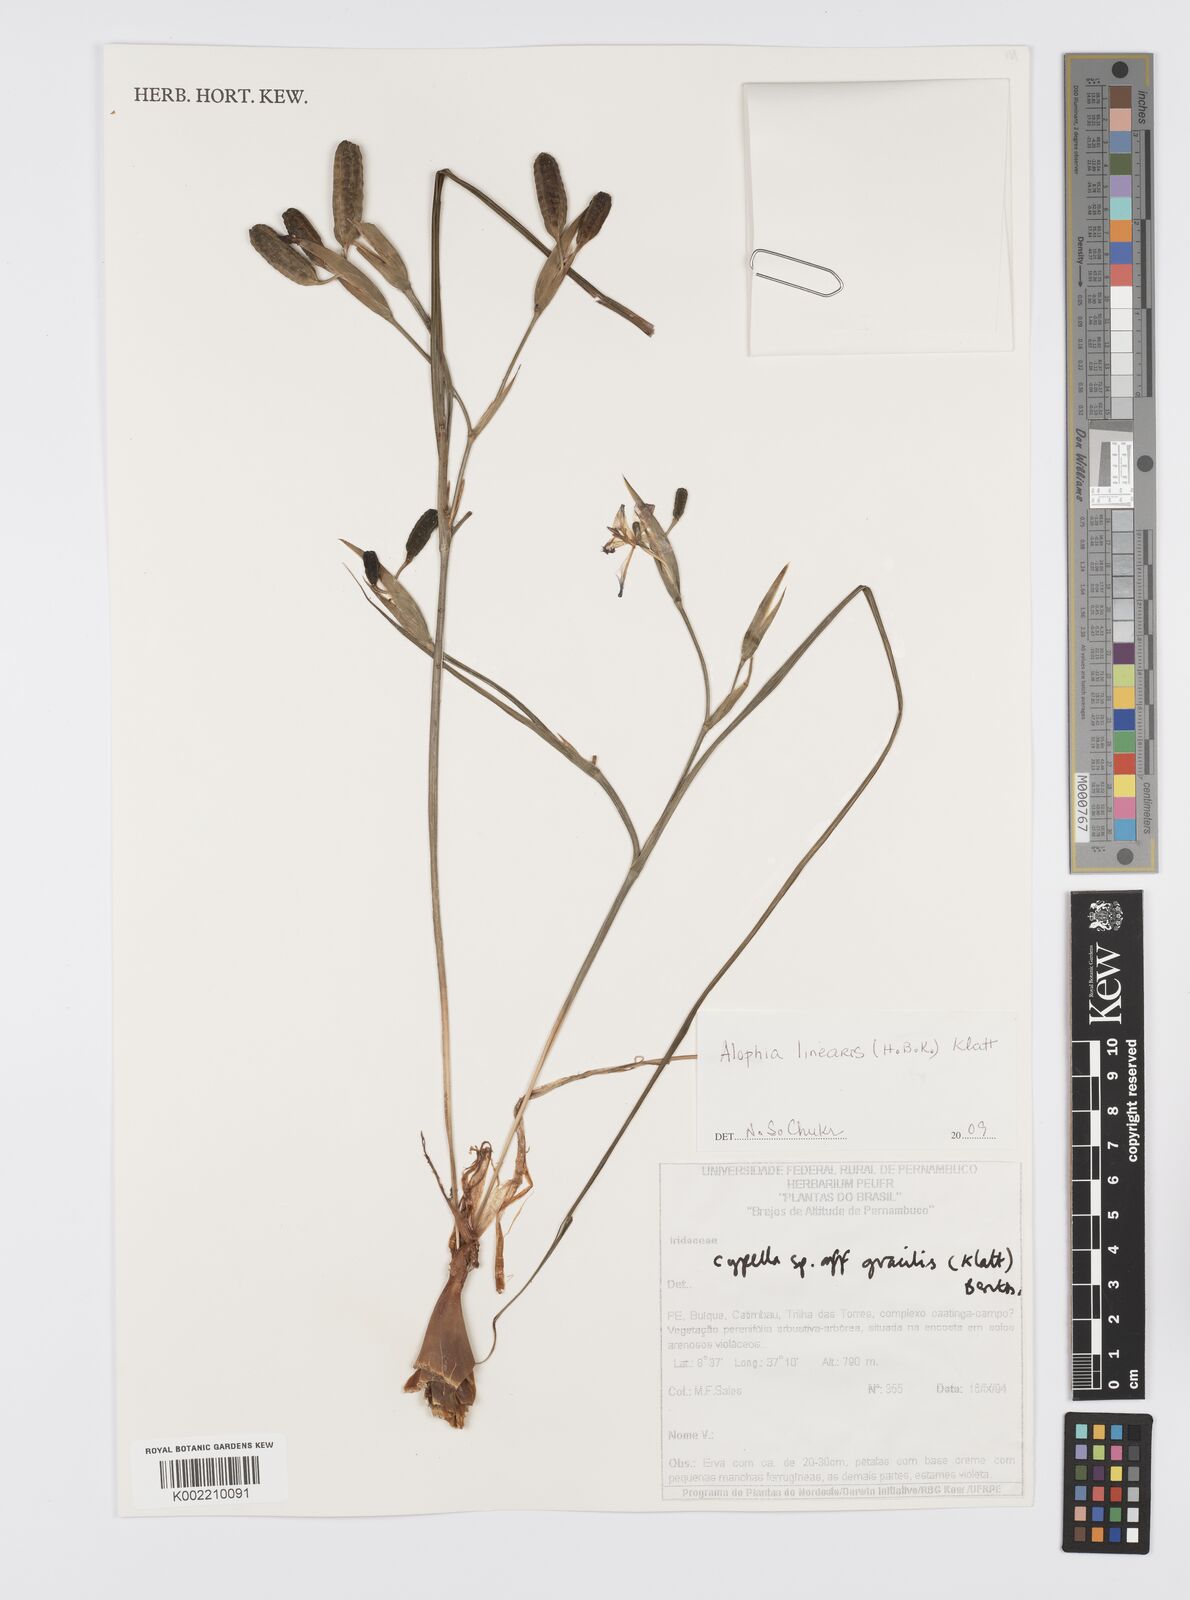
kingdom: Plantae
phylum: Tracheophyta
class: Liliopsida
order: Asparagales
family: Iridaceae
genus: Larentia
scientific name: Larentia linearis
